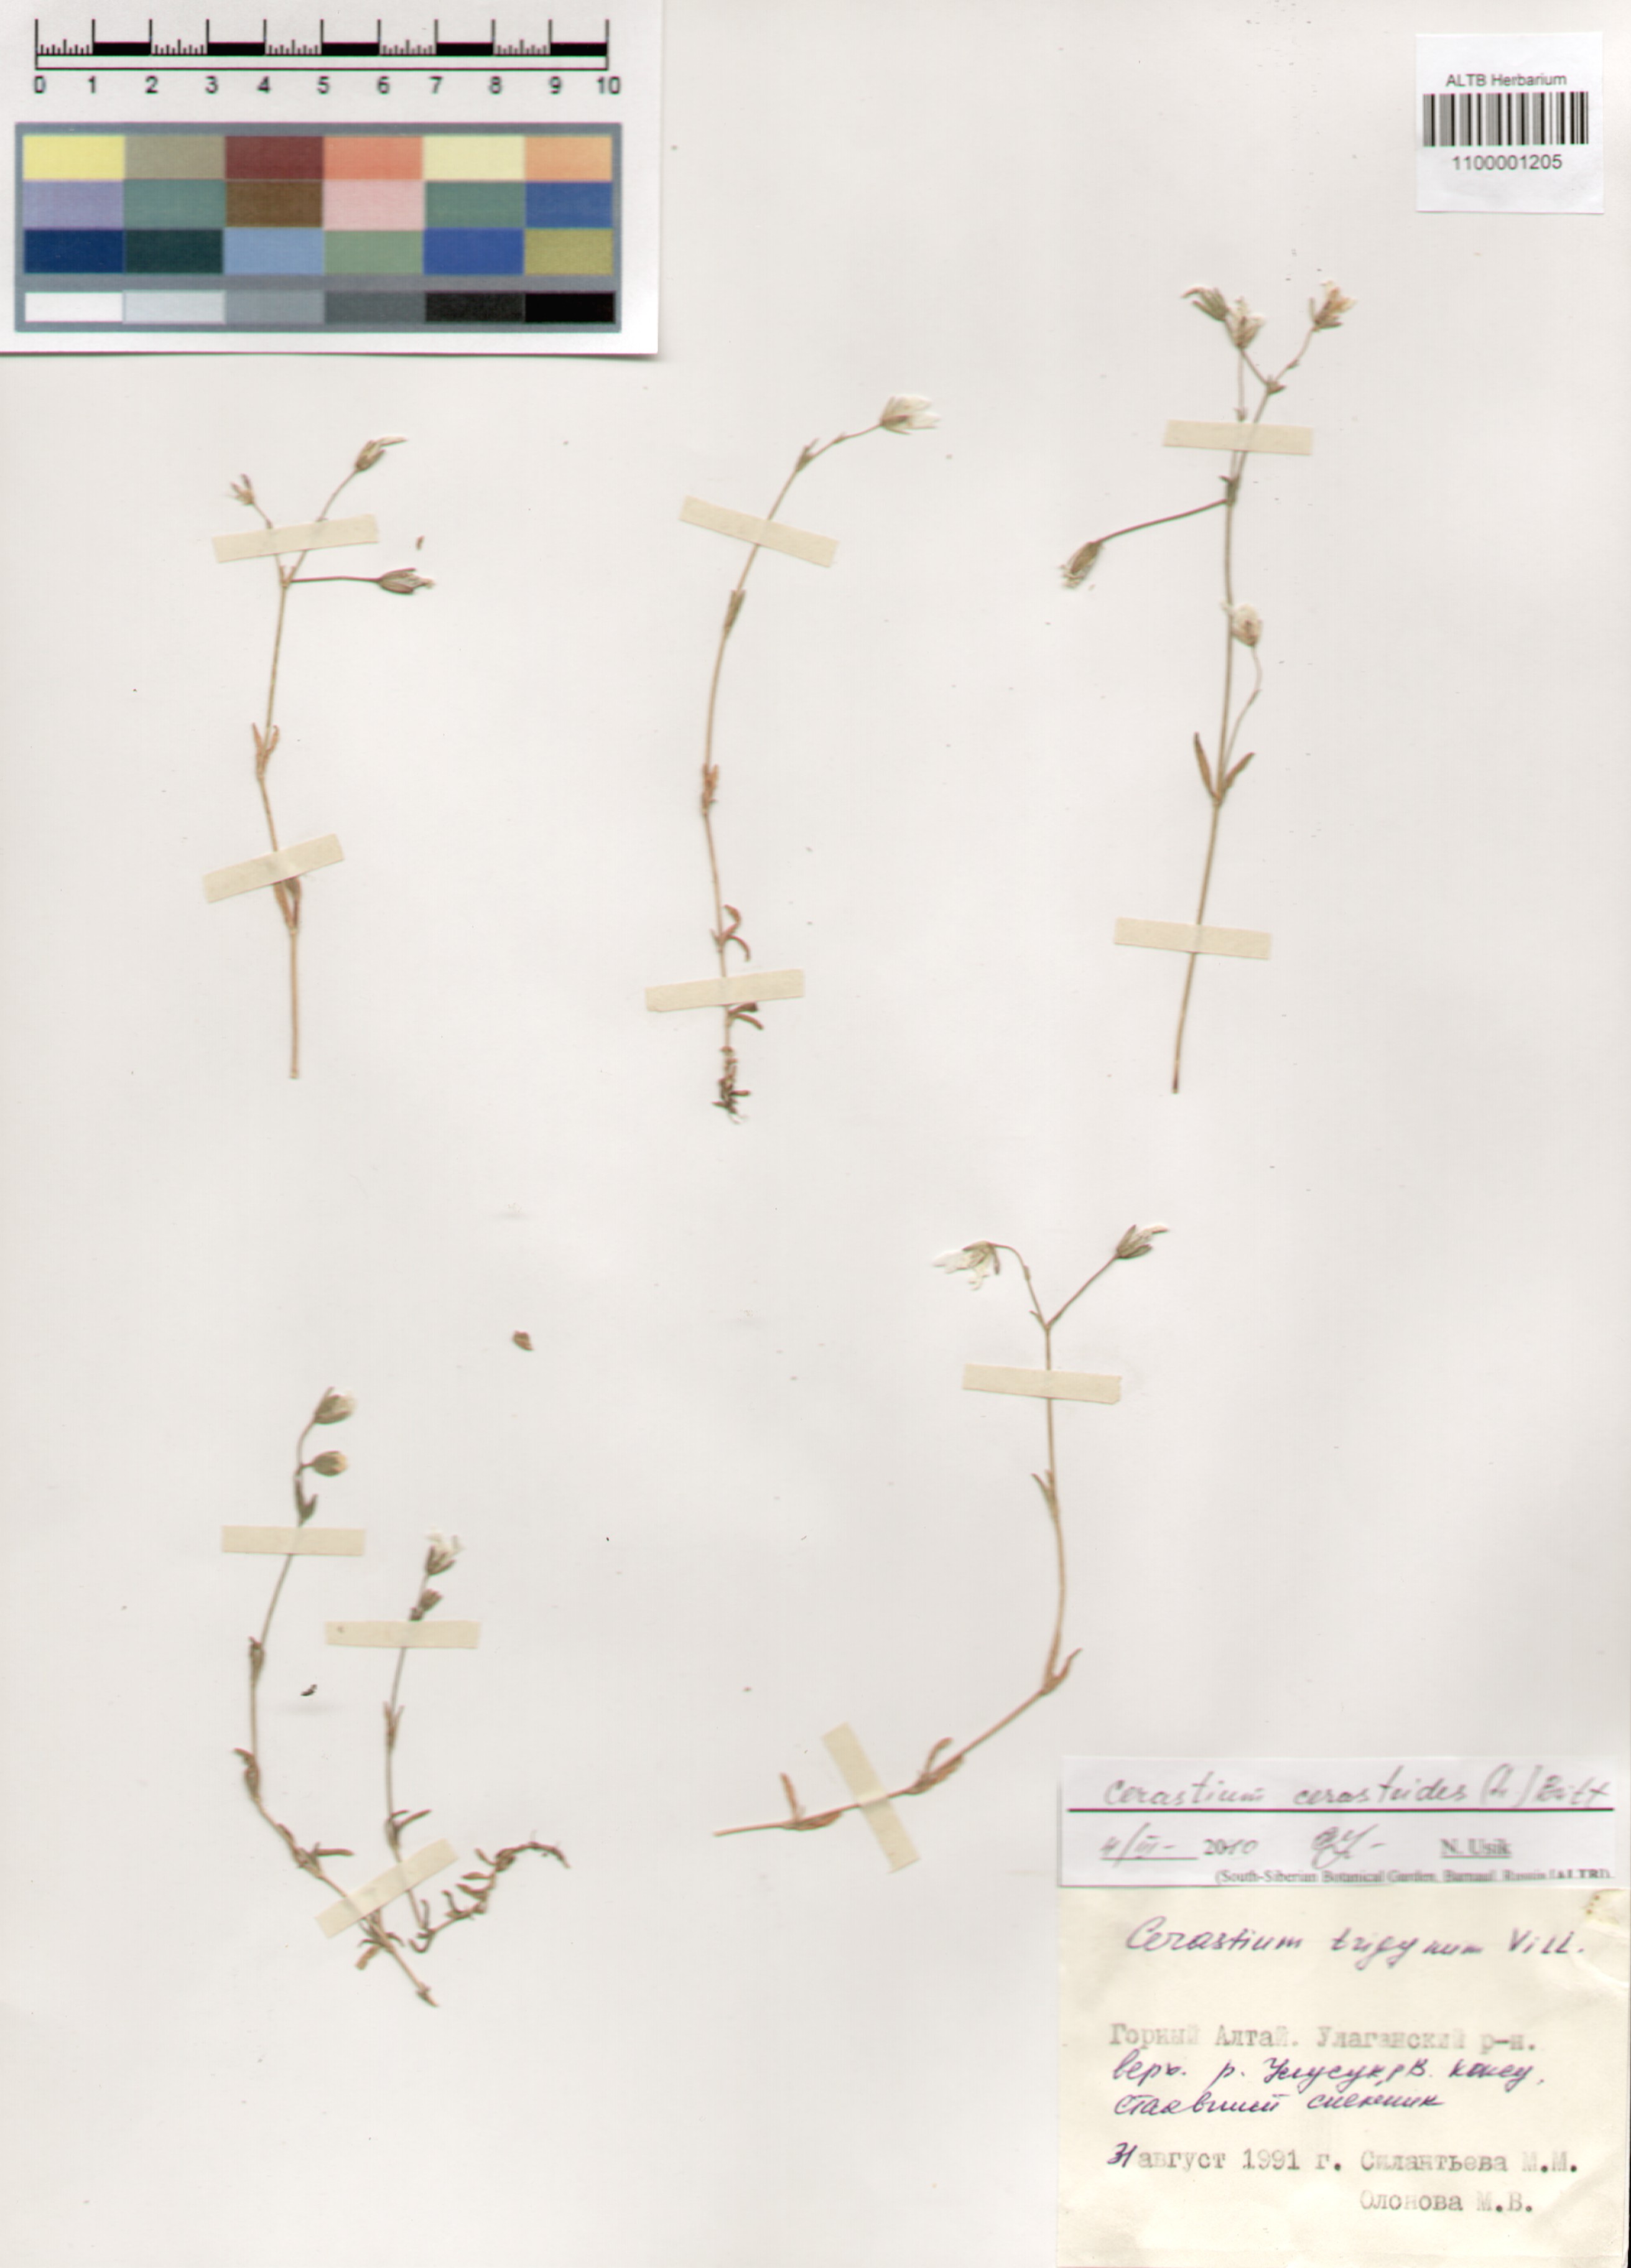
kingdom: Plantae
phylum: Tracheophyta
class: Magnoliopsida
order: Caryophyllales
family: Caryophyllaceae
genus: Dichodon
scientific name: Dichodon cerastoides
